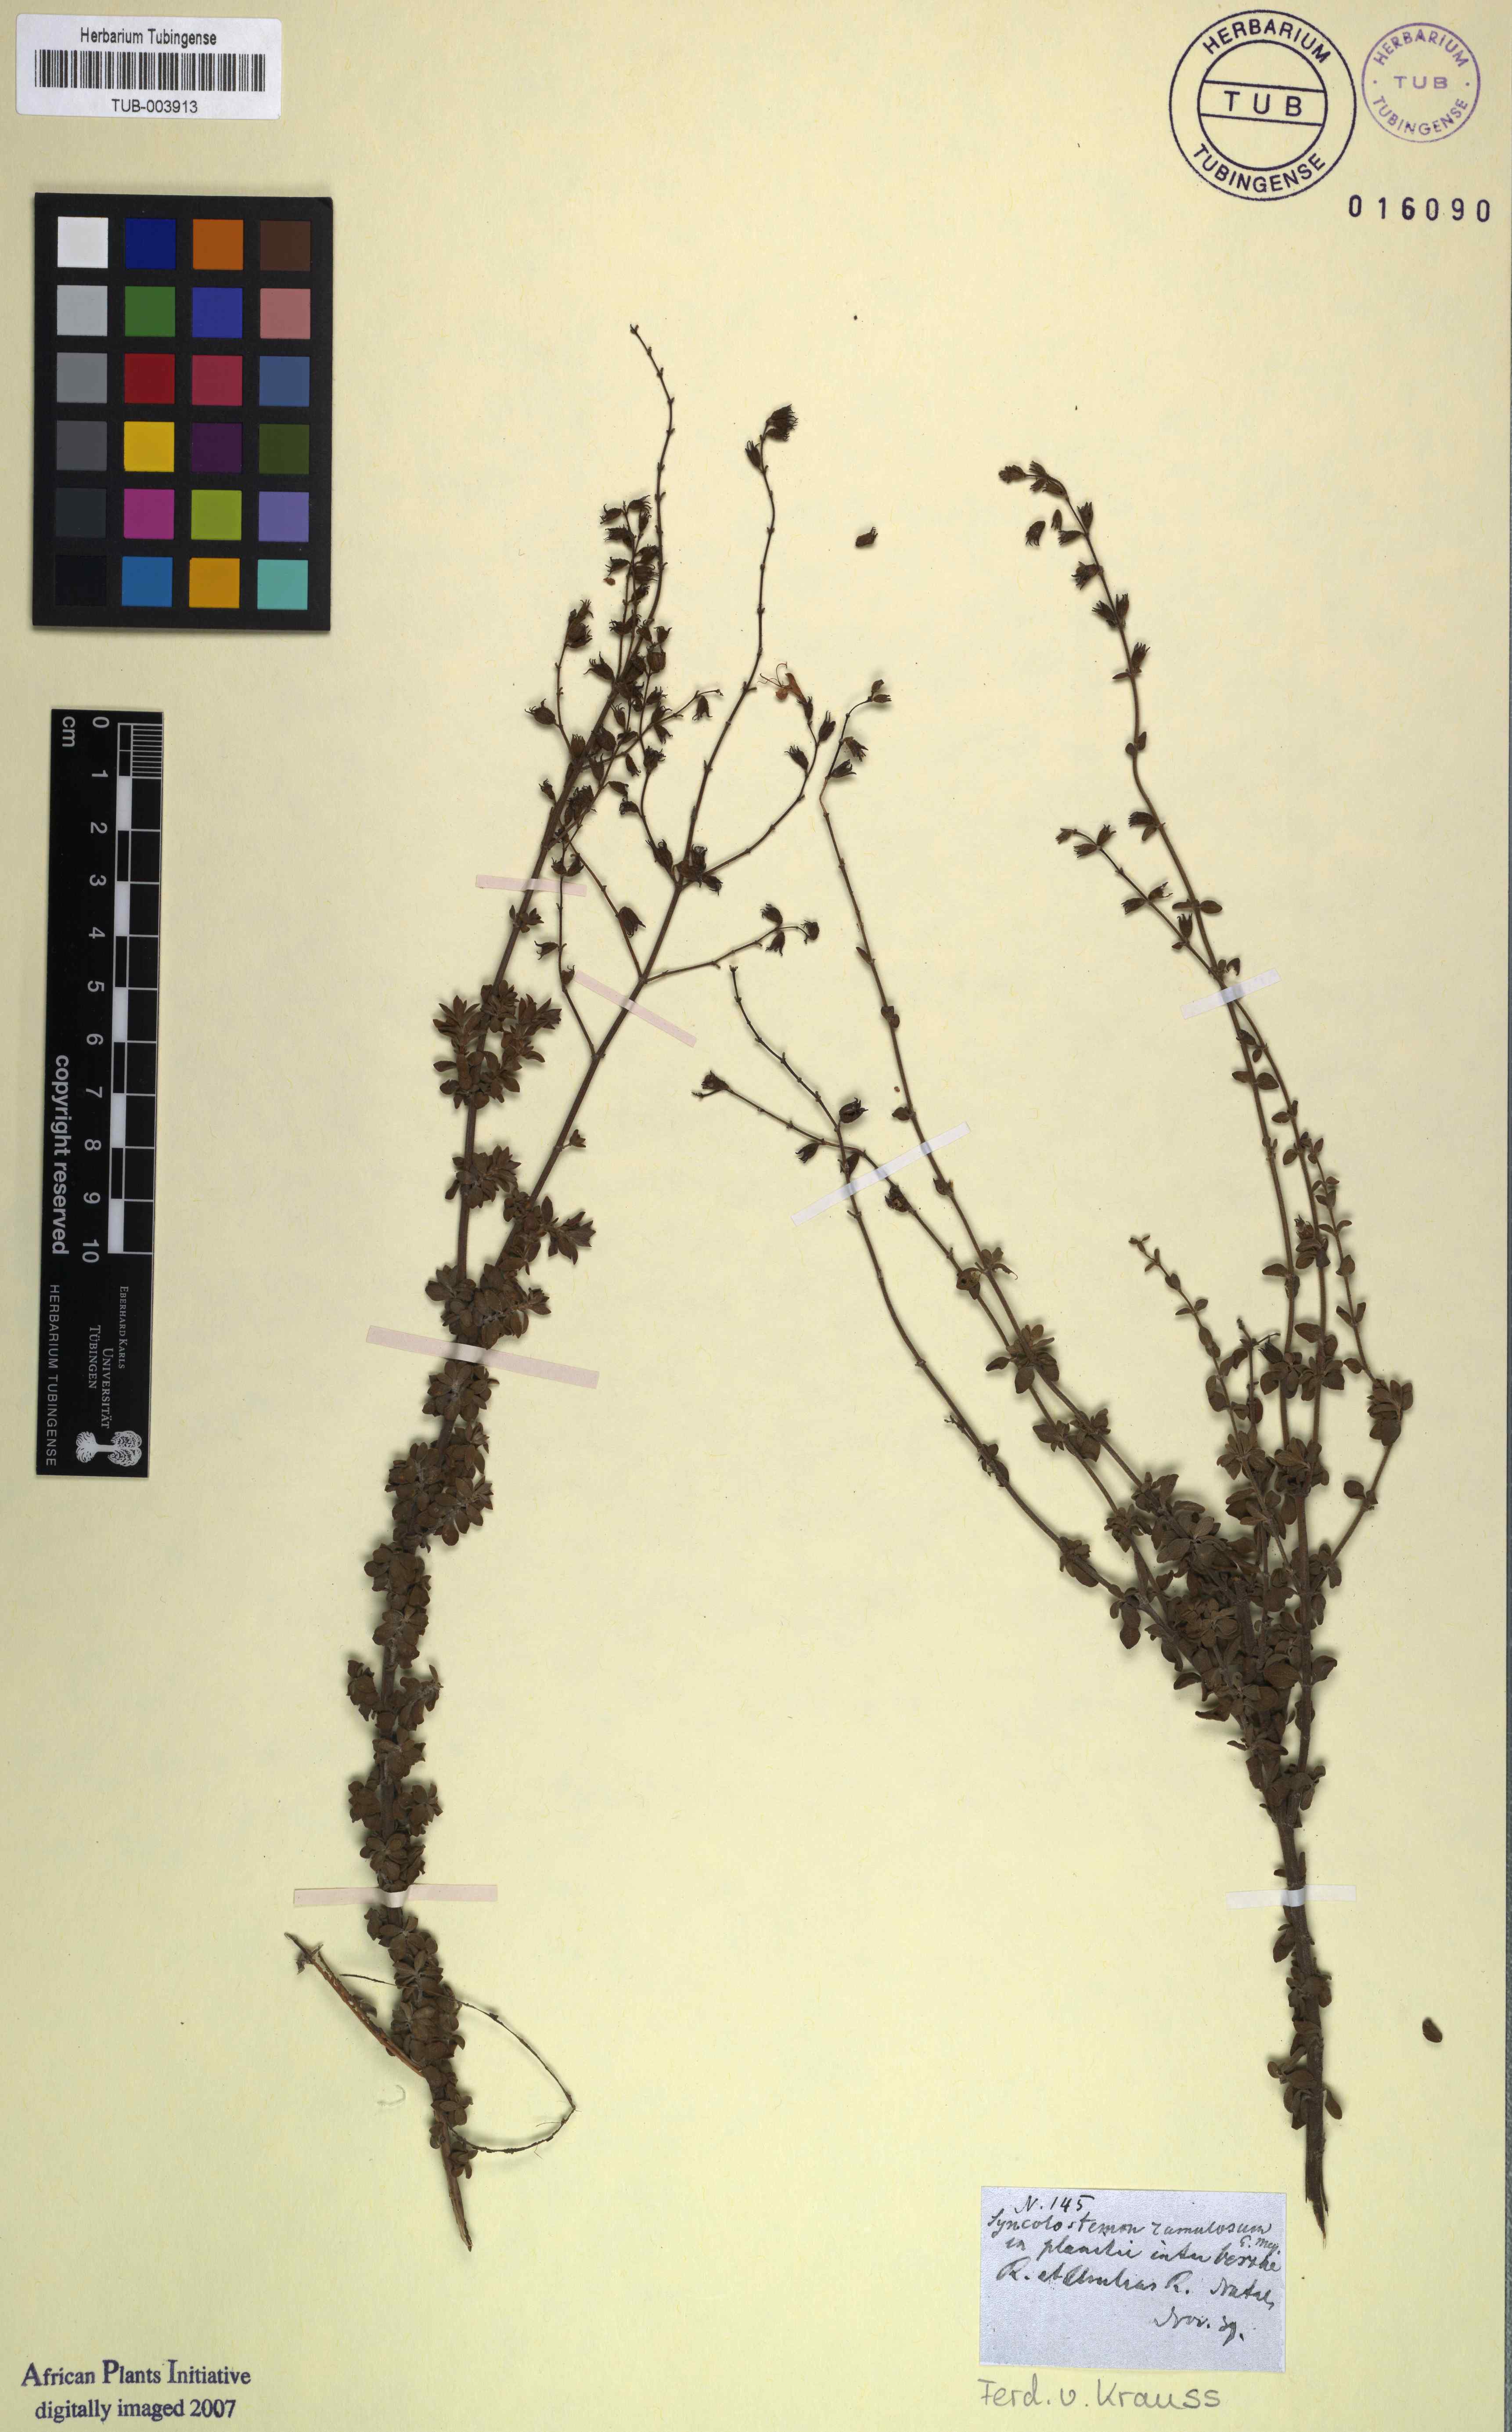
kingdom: Plantae
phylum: Tracheophyta
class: Magnoliopsida
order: Lamiales
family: Lamiaceae
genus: Syncolostemon
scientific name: Syncolostemon ramulosus
